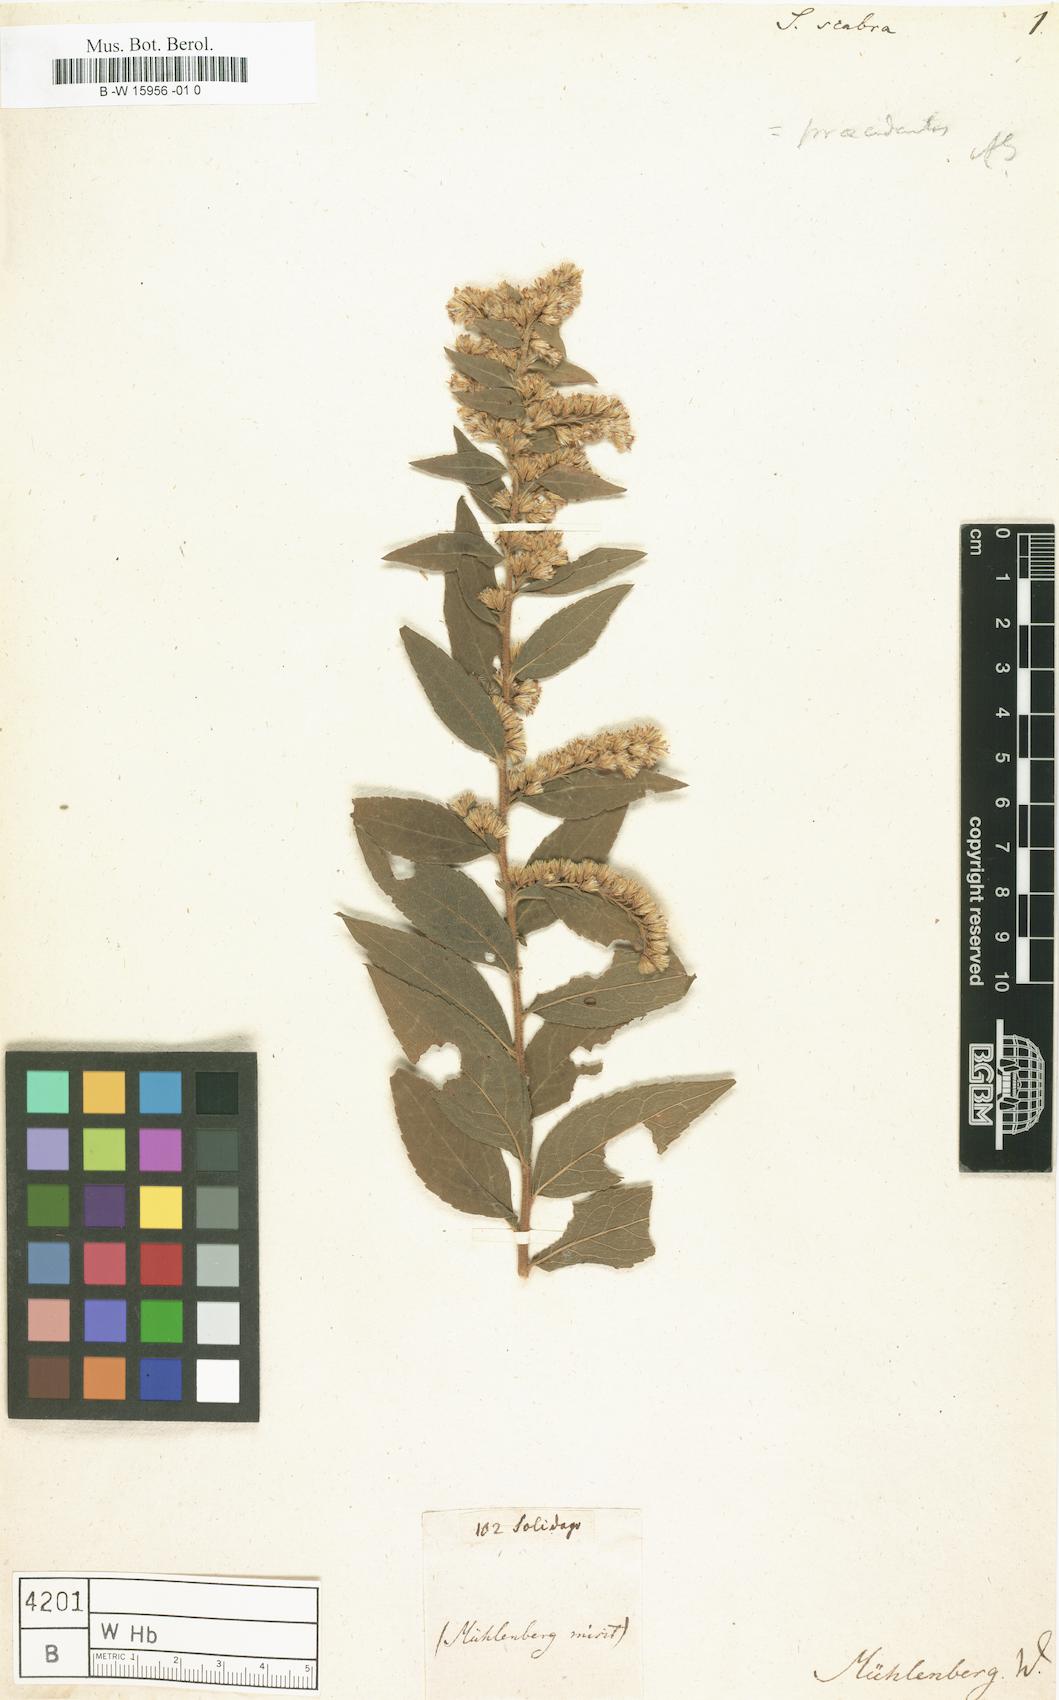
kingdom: Plantae
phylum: Tracheophyta
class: Magnoliopsida
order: Asterales
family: Asteraceae
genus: Solidago
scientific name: Solidago altissima
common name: Late goldenrod
